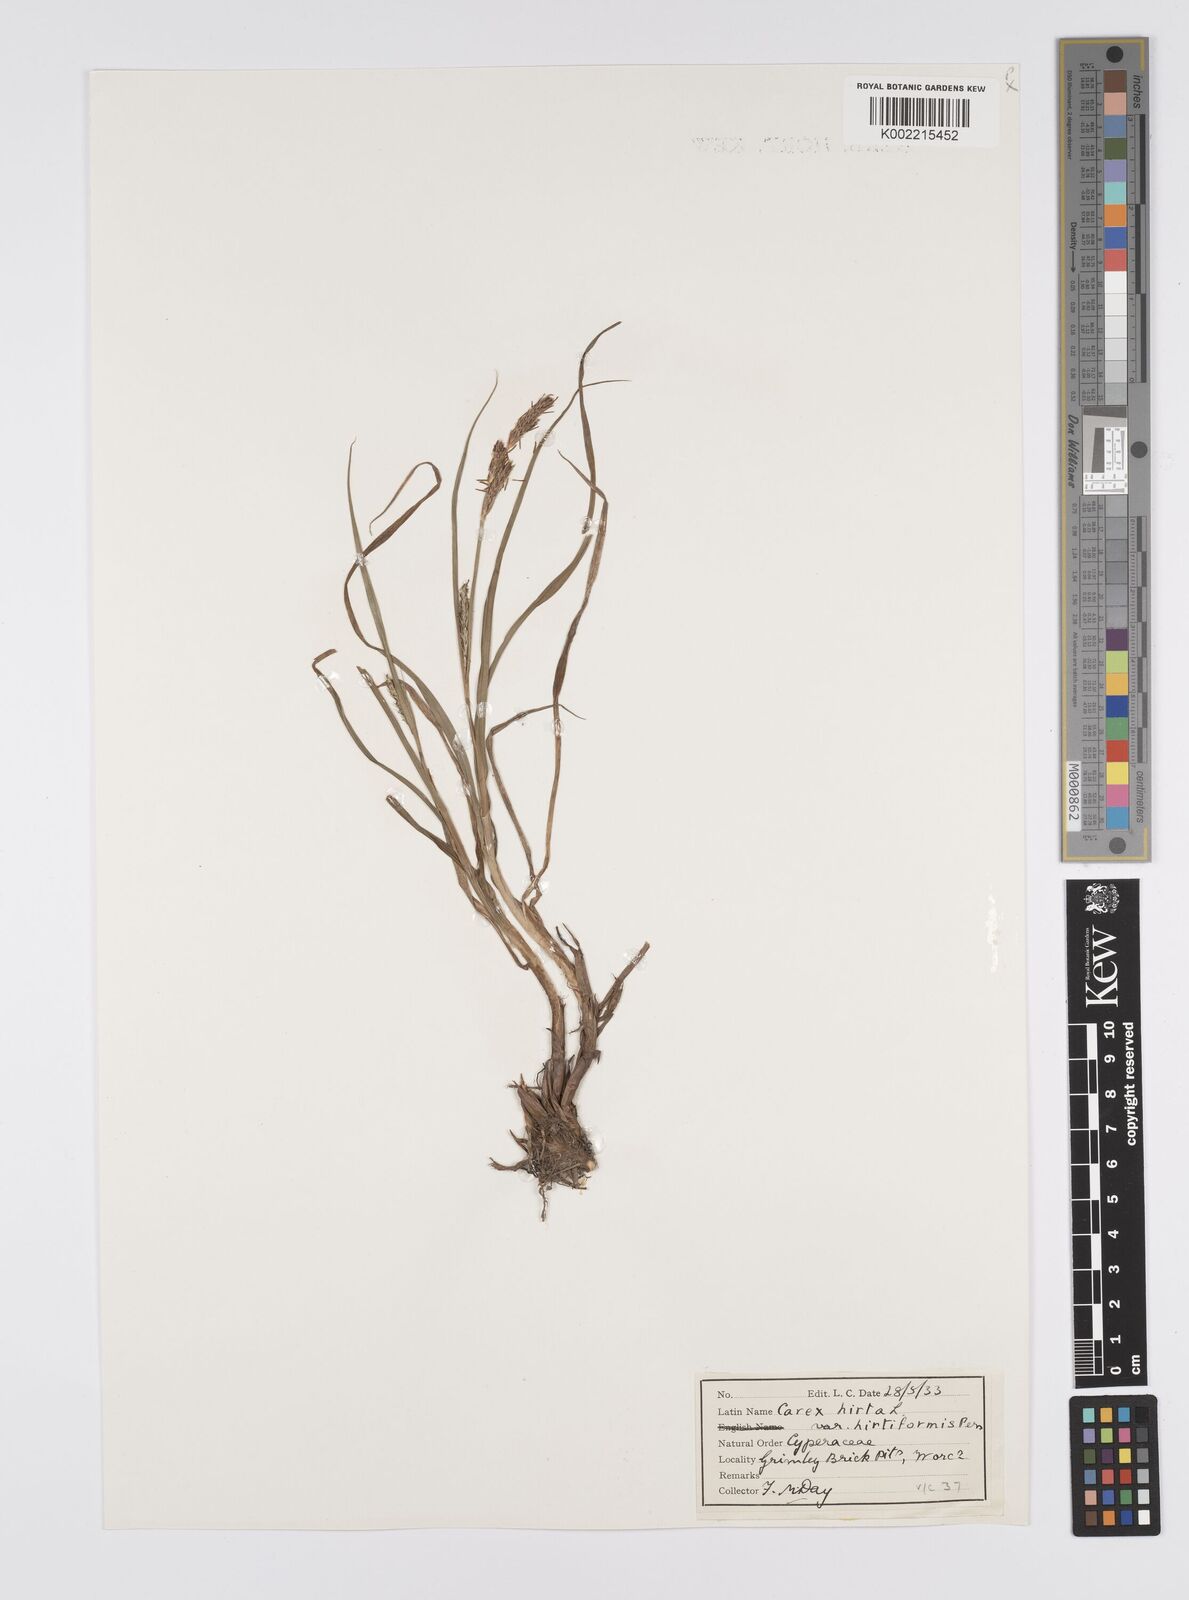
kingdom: Plantae
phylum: Tracheophyta
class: Liliopsida
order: Poales
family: Cyperaceae
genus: Carex
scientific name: Carex hirta
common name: Hairy sedge
